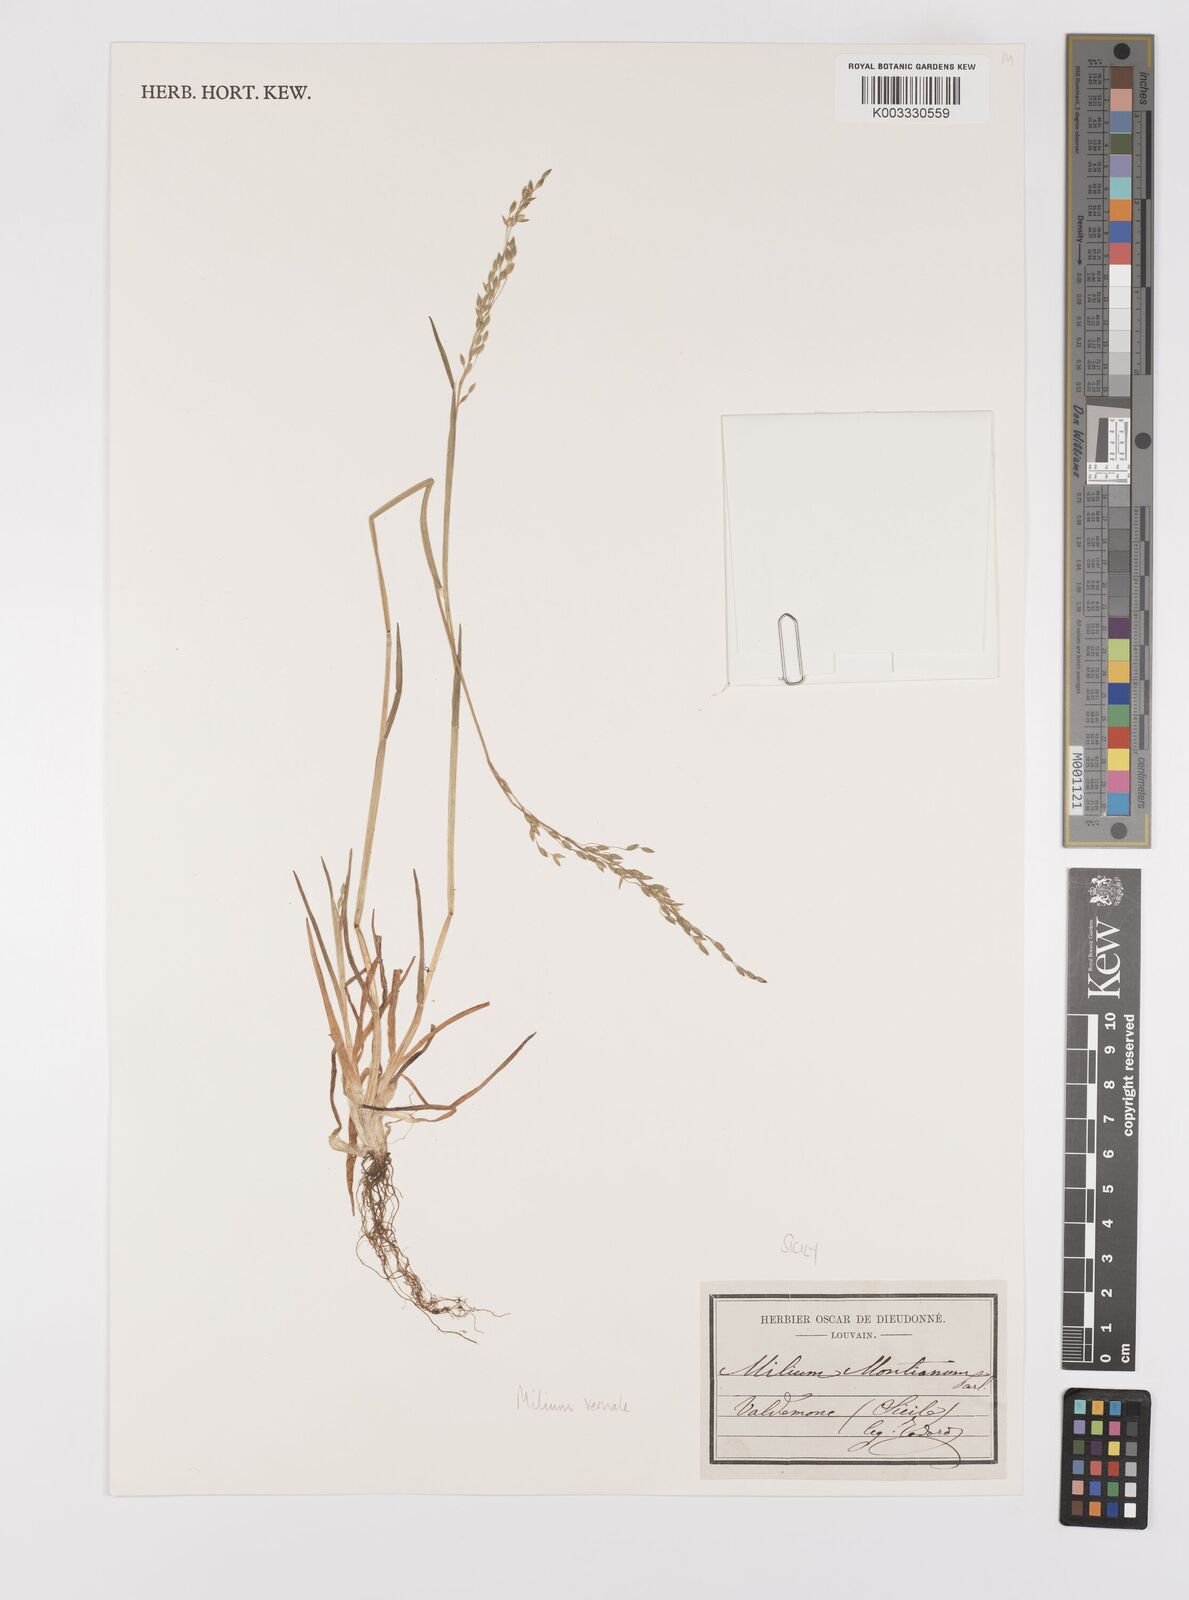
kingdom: Plantae
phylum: Tracheophyta
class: Liliopsida
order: Poales
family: Poaceae
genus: Milium
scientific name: Milium vernale
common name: Early millet
